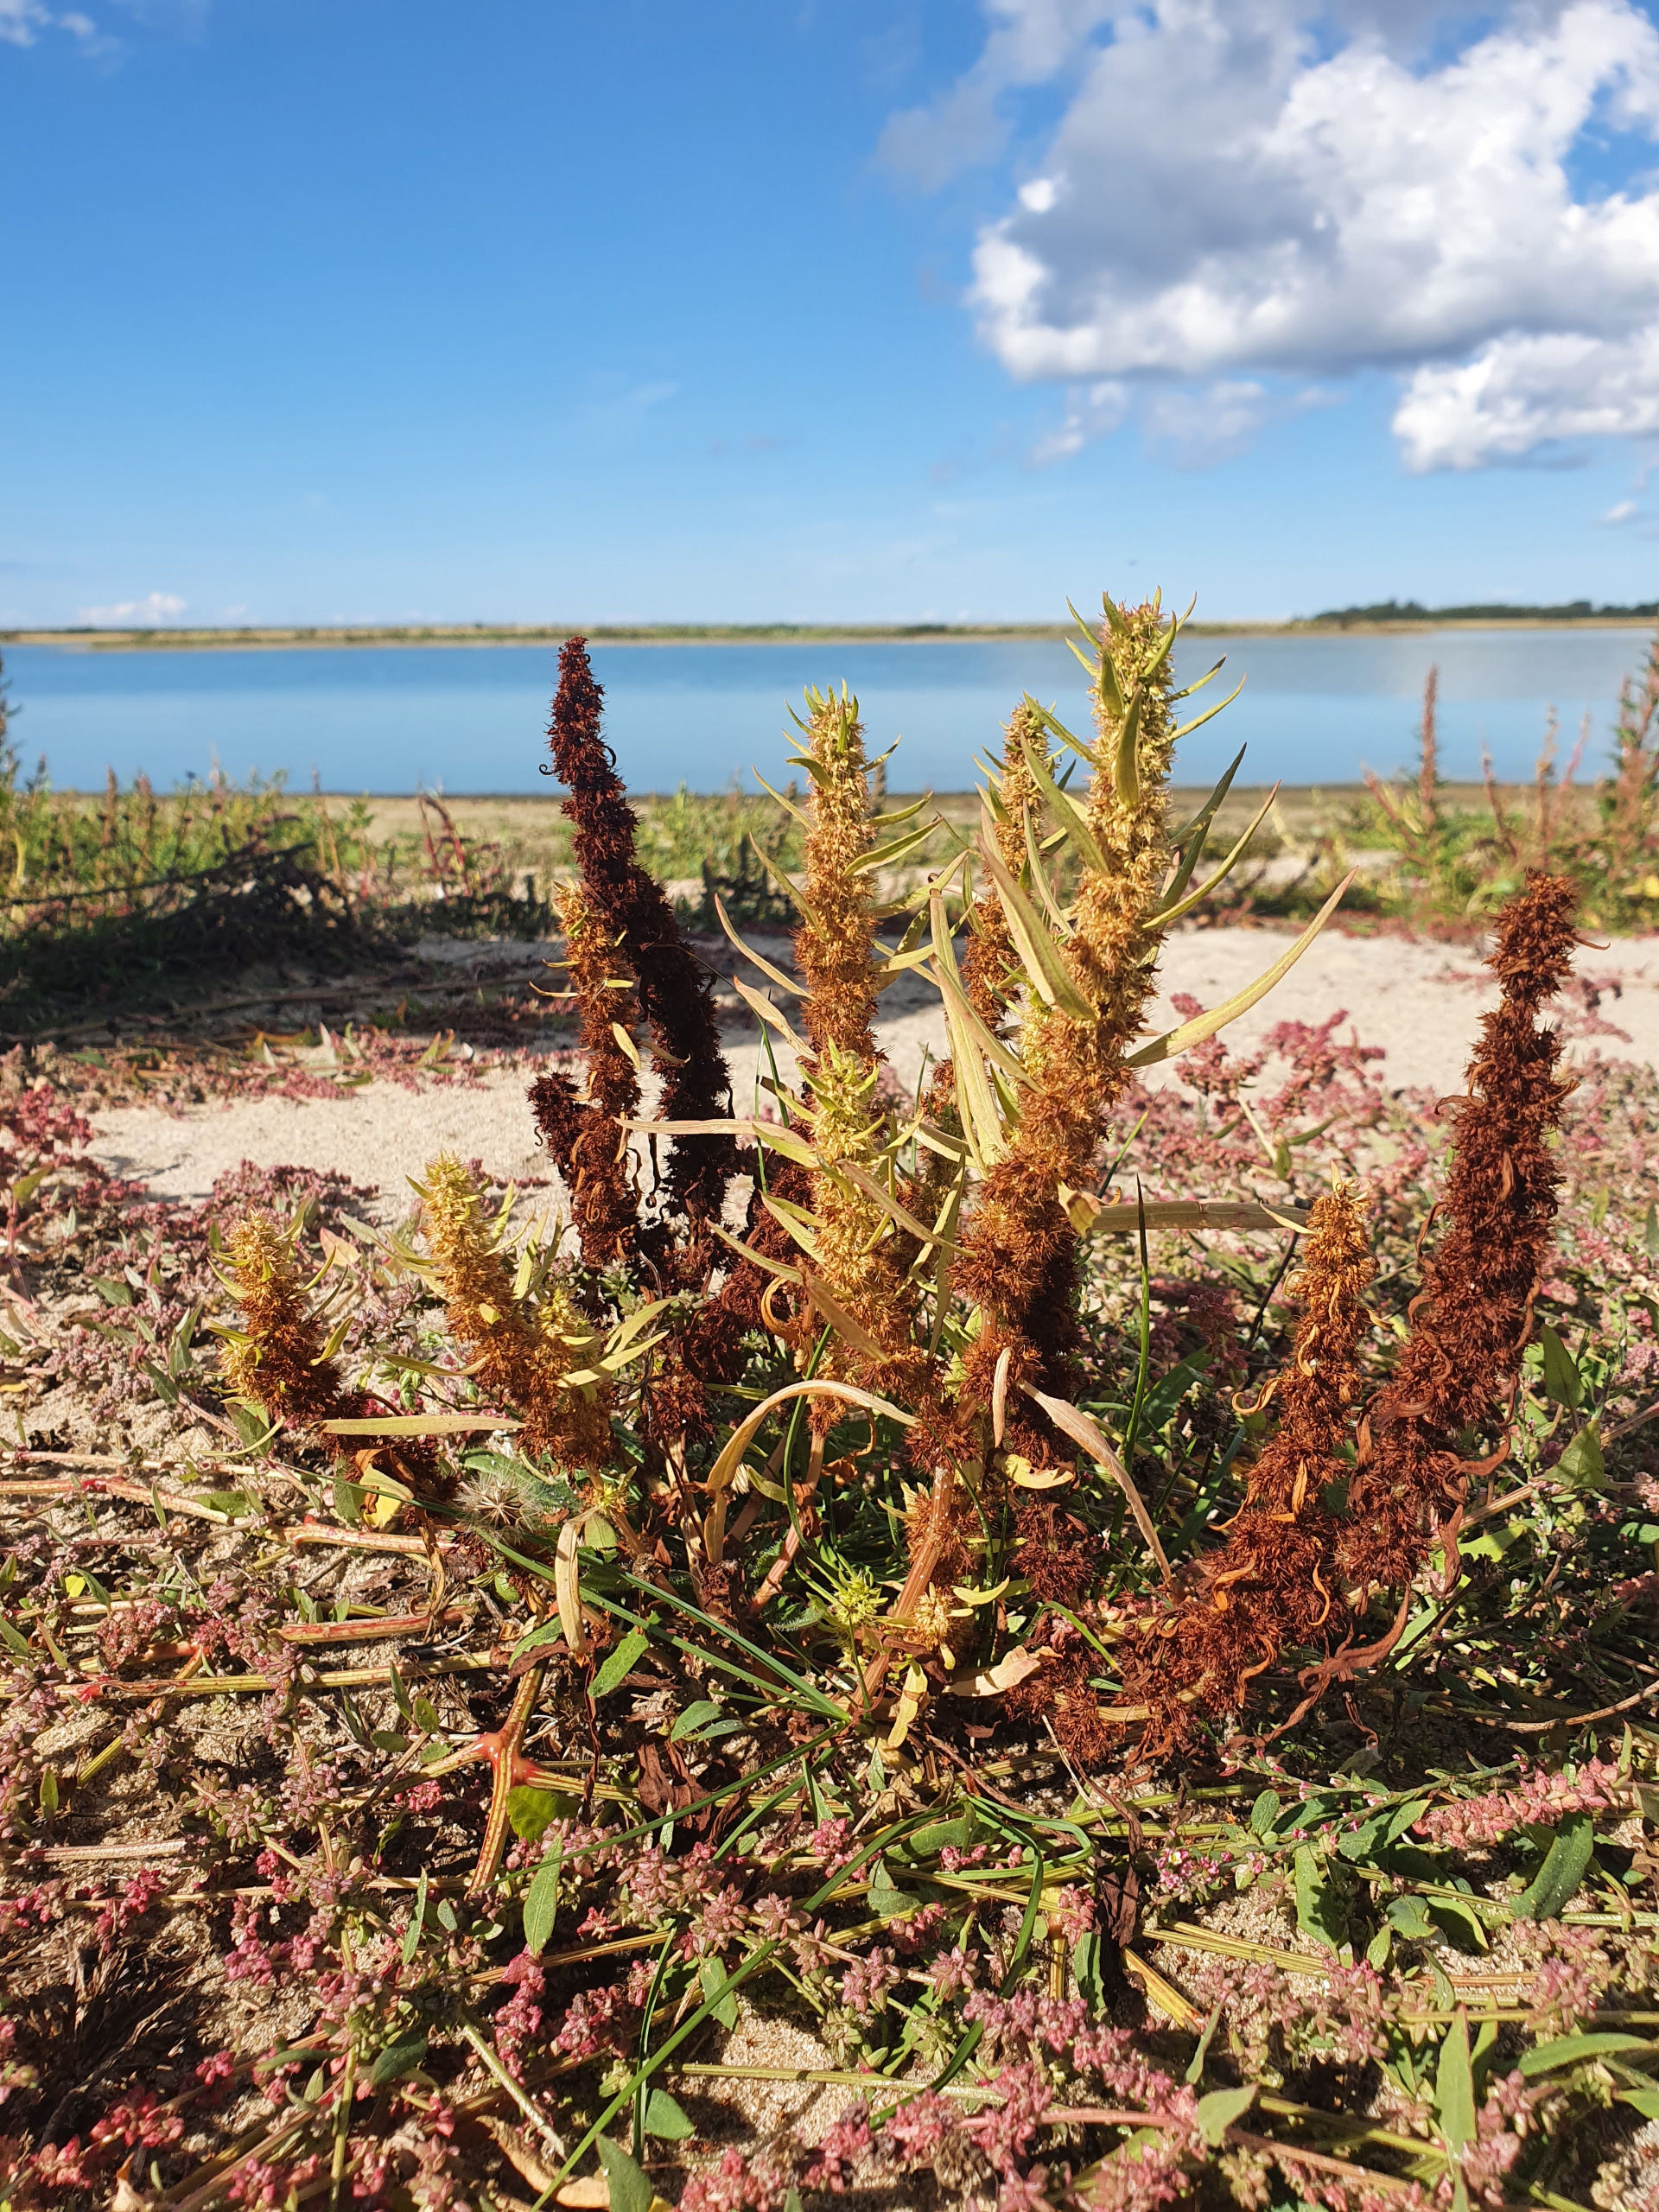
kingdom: Plantae
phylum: Tracheophyta
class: Magnoliopsida
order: Caryophyllales
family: Polygonaceae
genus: Rumex
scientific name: Rumex maritimus
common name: Strand-skræppe
